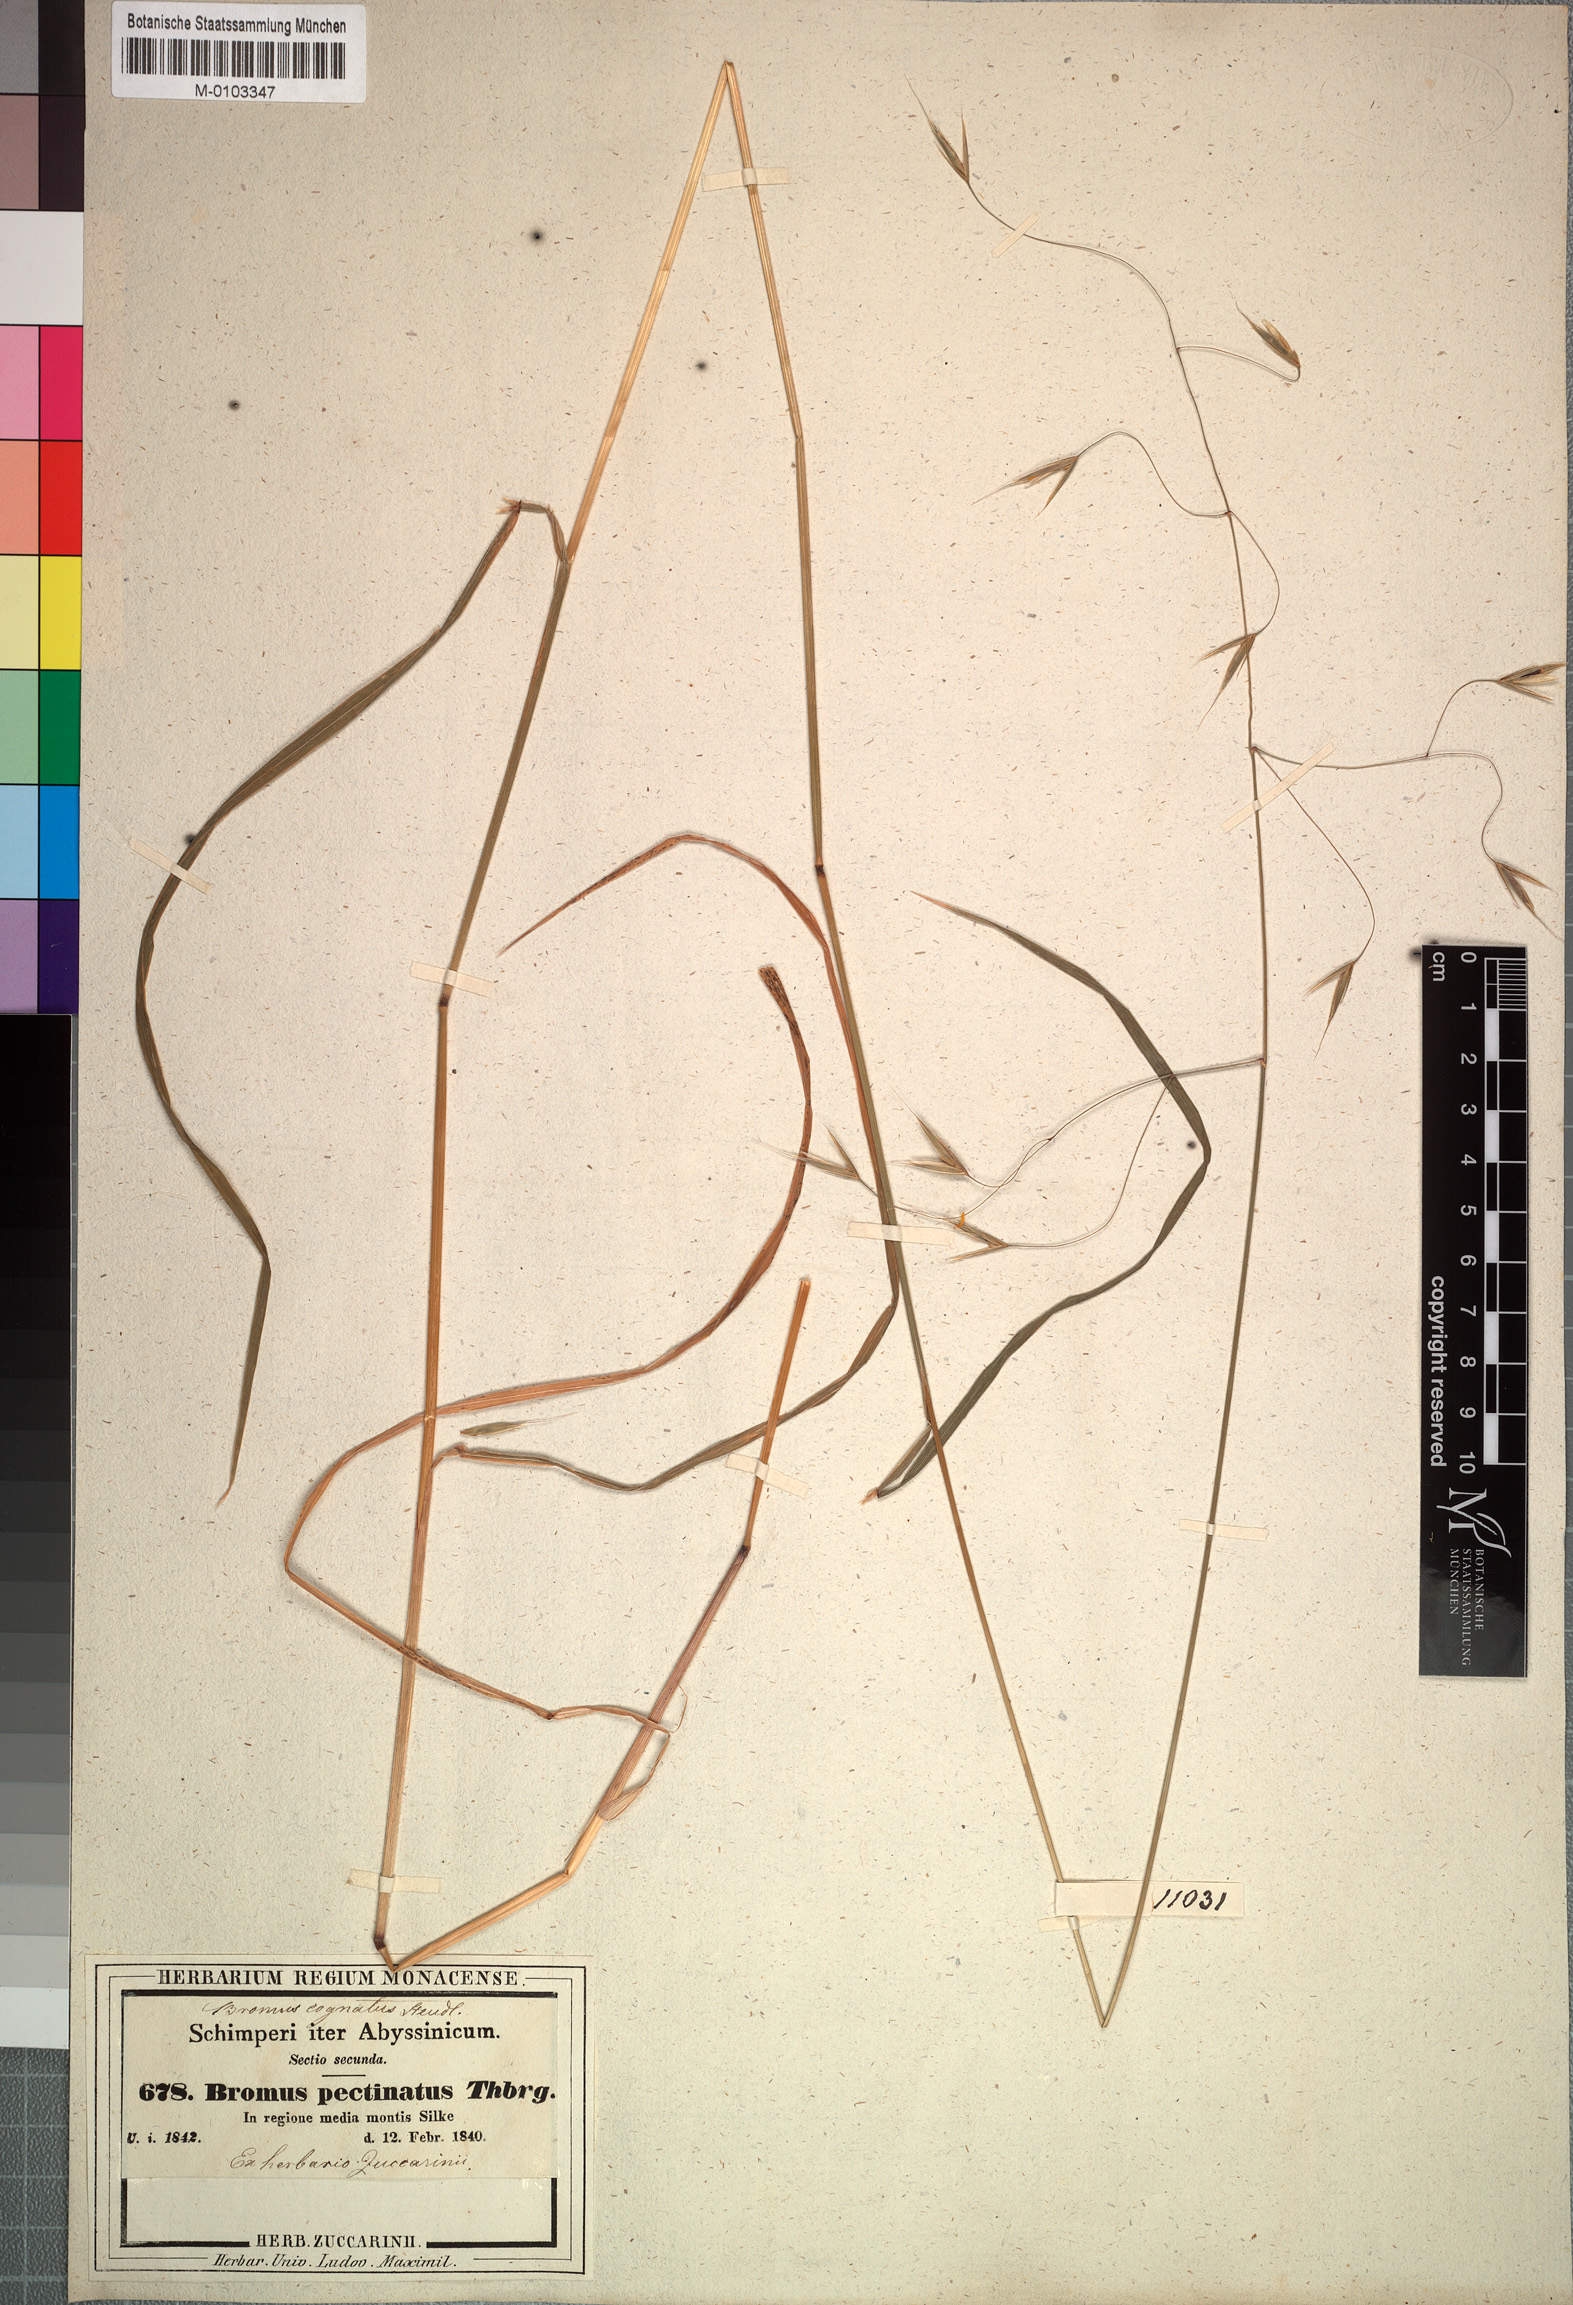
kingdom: Plantae
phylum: Tracheophyta
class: Liliopsida
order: Poales
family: Poaceae
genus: Bromus
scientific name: Bromus leptoclados
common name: Mountain bromegrass
